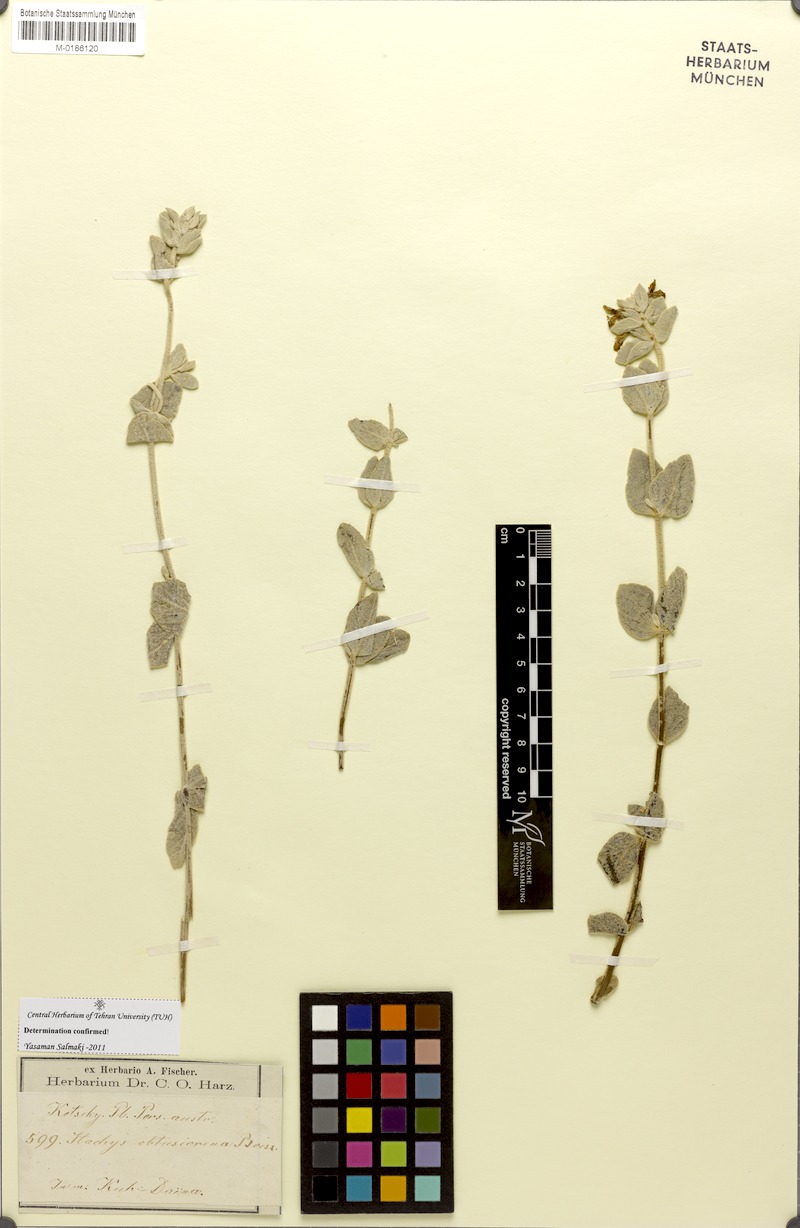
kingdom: Plantae
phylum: Tracheophyta
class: Magnoliopsida
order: Lamiales
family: Lamiaceae
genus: Stachys
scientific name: Stachys obtusicrena
